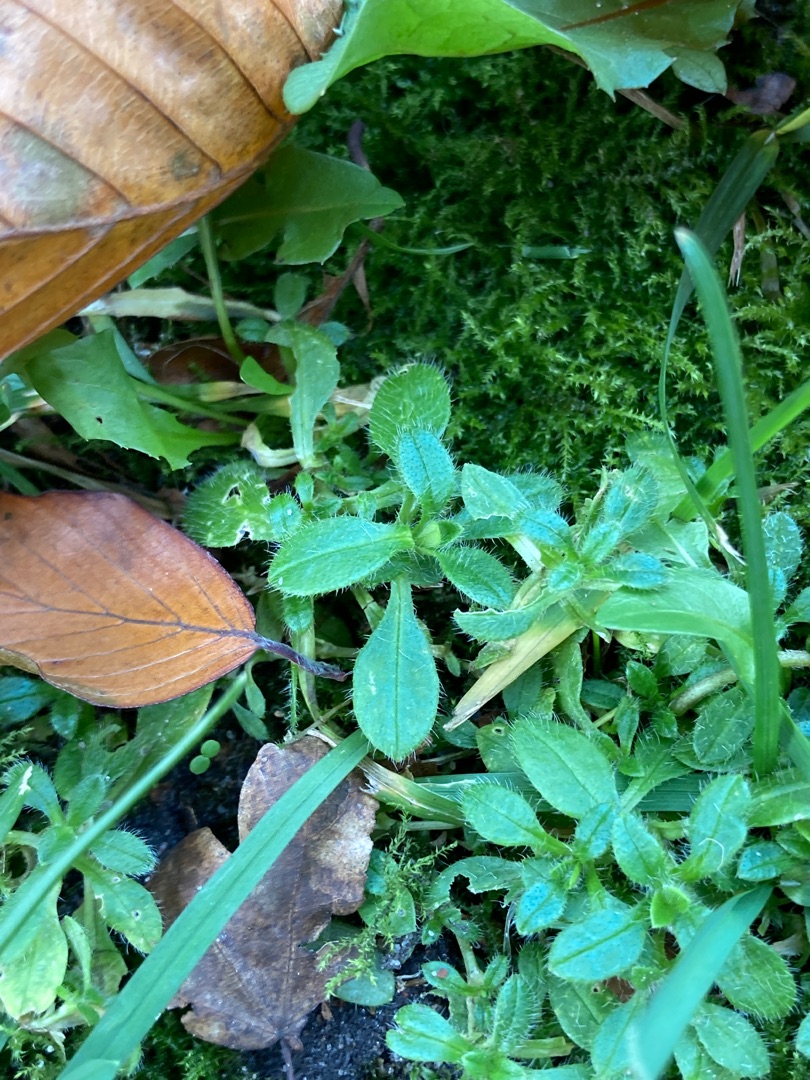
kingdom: Plantae
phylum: Tracheophyta
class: Magnoliopsida
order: Caryophyllales
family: Caryophyllaceae
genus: Cerastium
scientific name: Cerastium holosteoides
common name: Almindelig hønsetarm (varietet)
